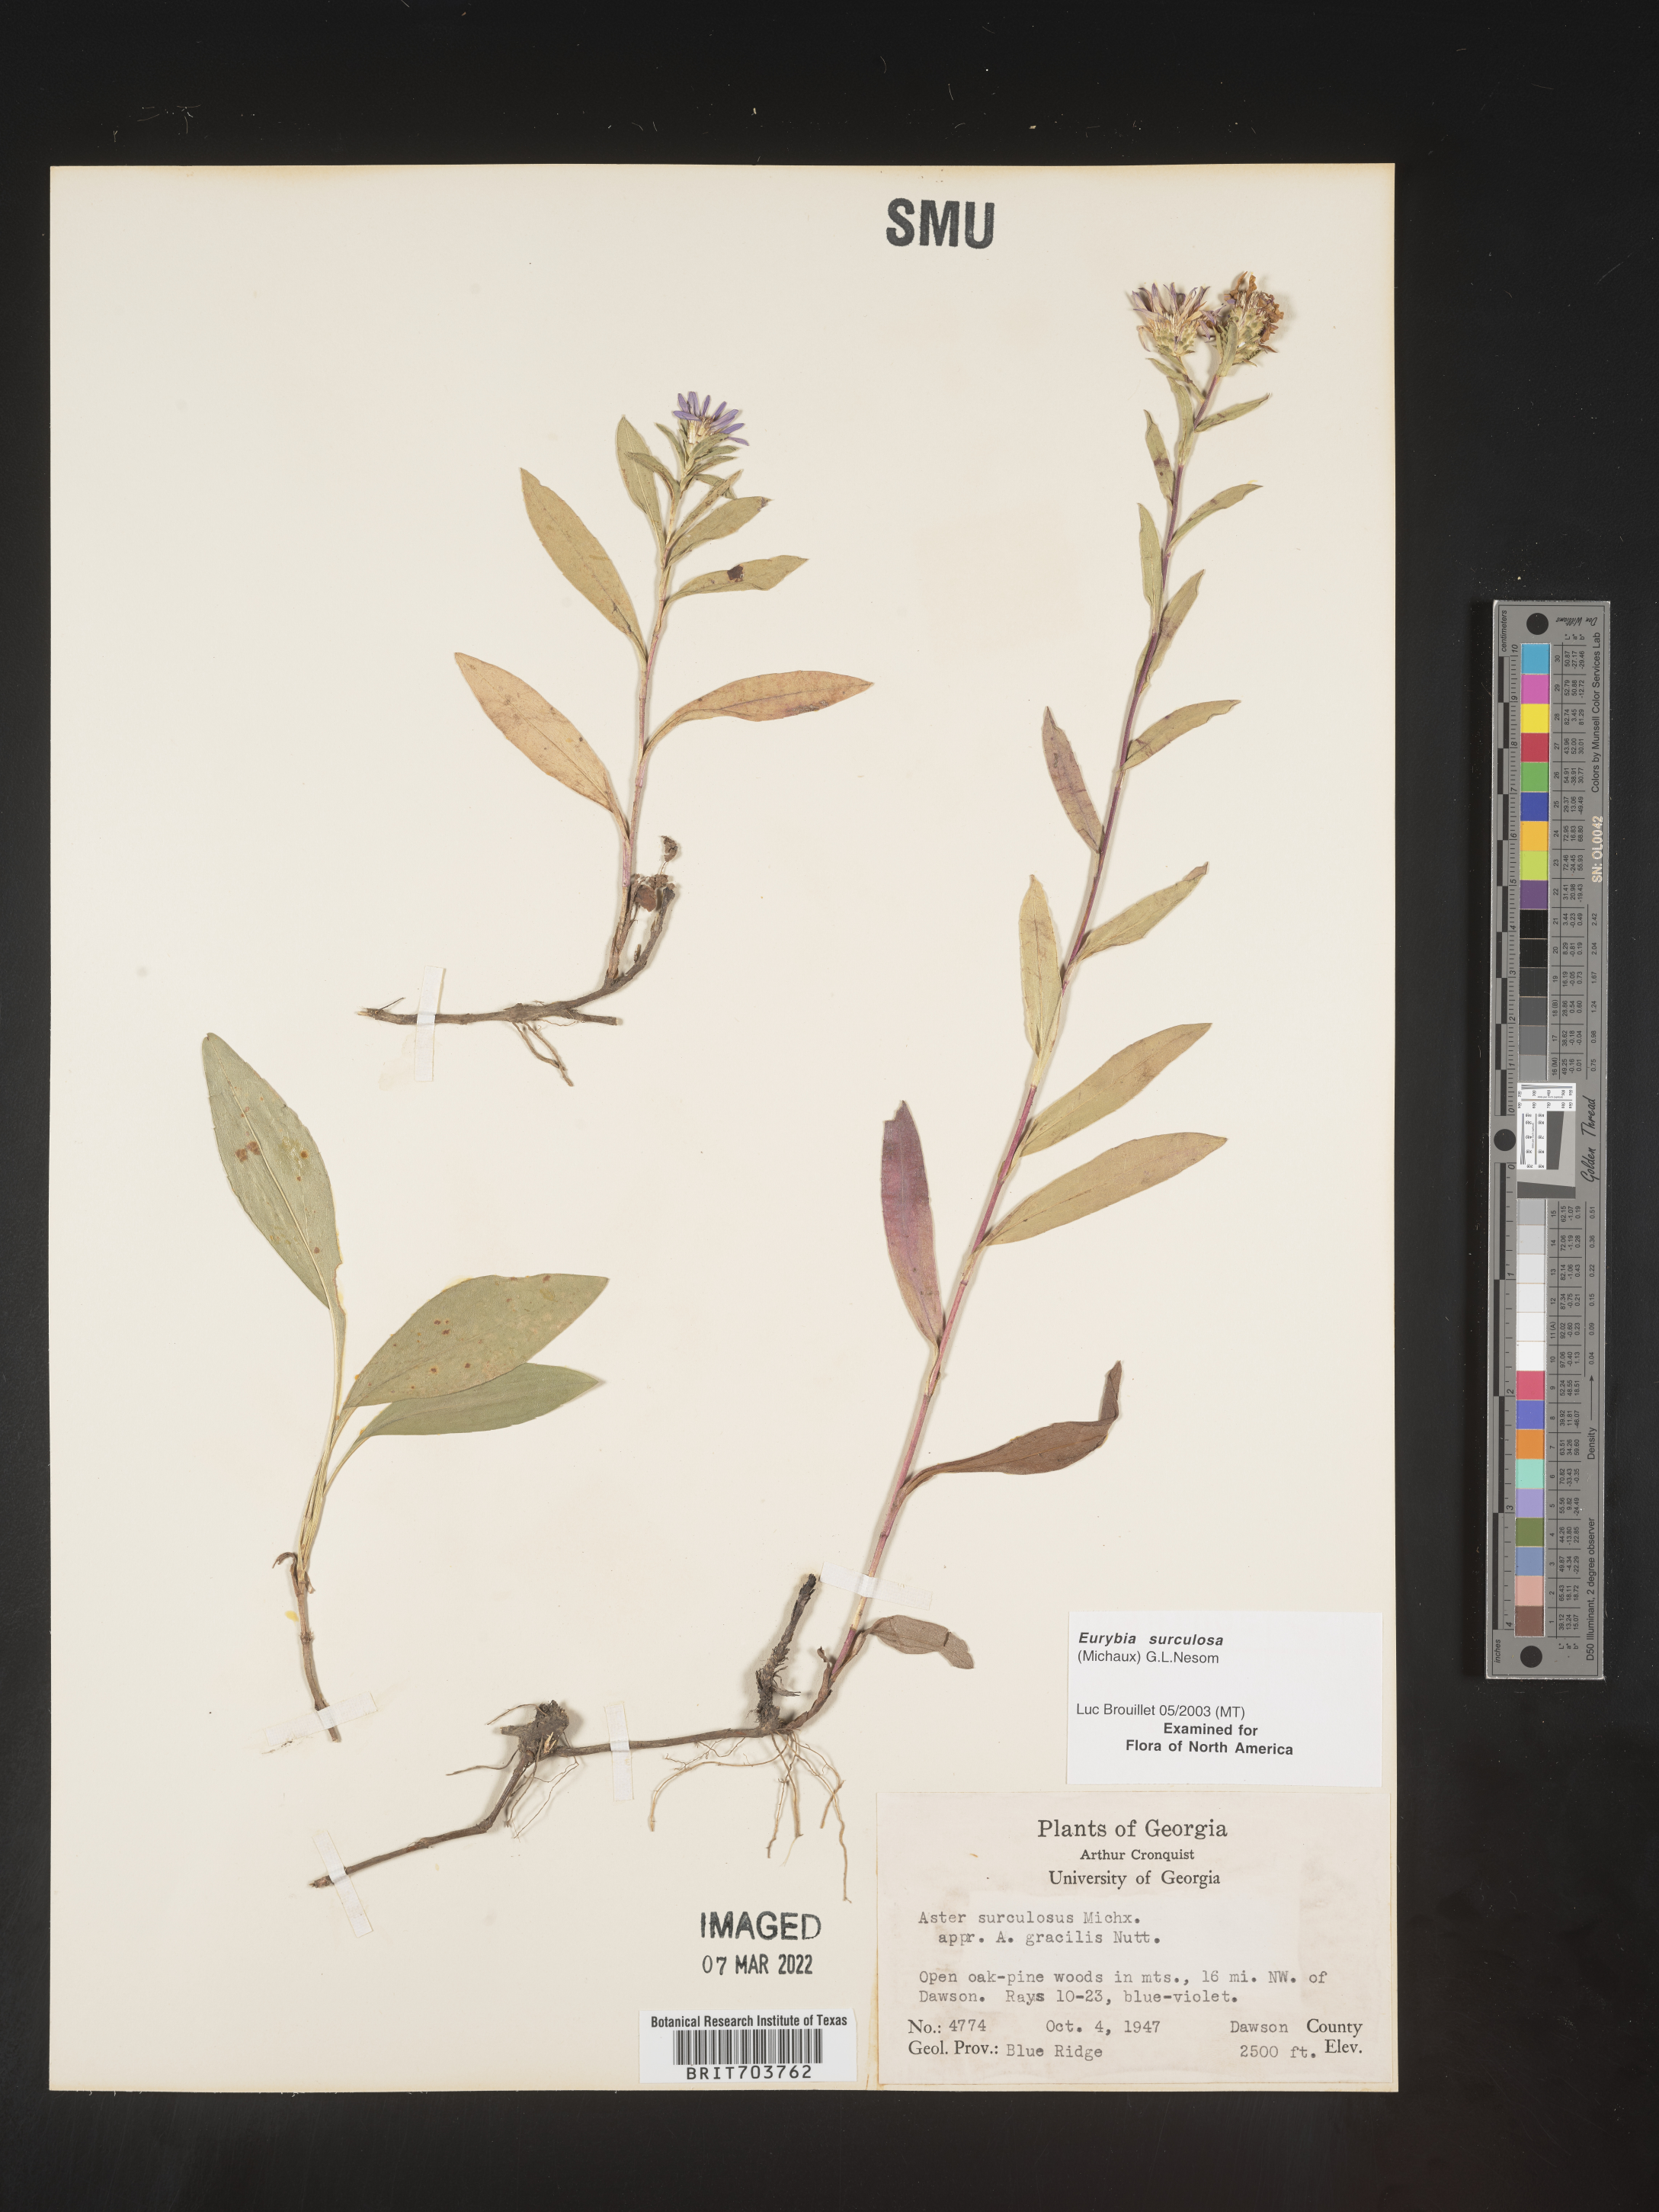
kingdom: Plantae
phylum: Tracheophyta
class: Magnoliopsida
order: Asterales
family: Asteraceae
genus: Eurybia
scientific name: Eurybia surculosa
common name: Creeping aster
